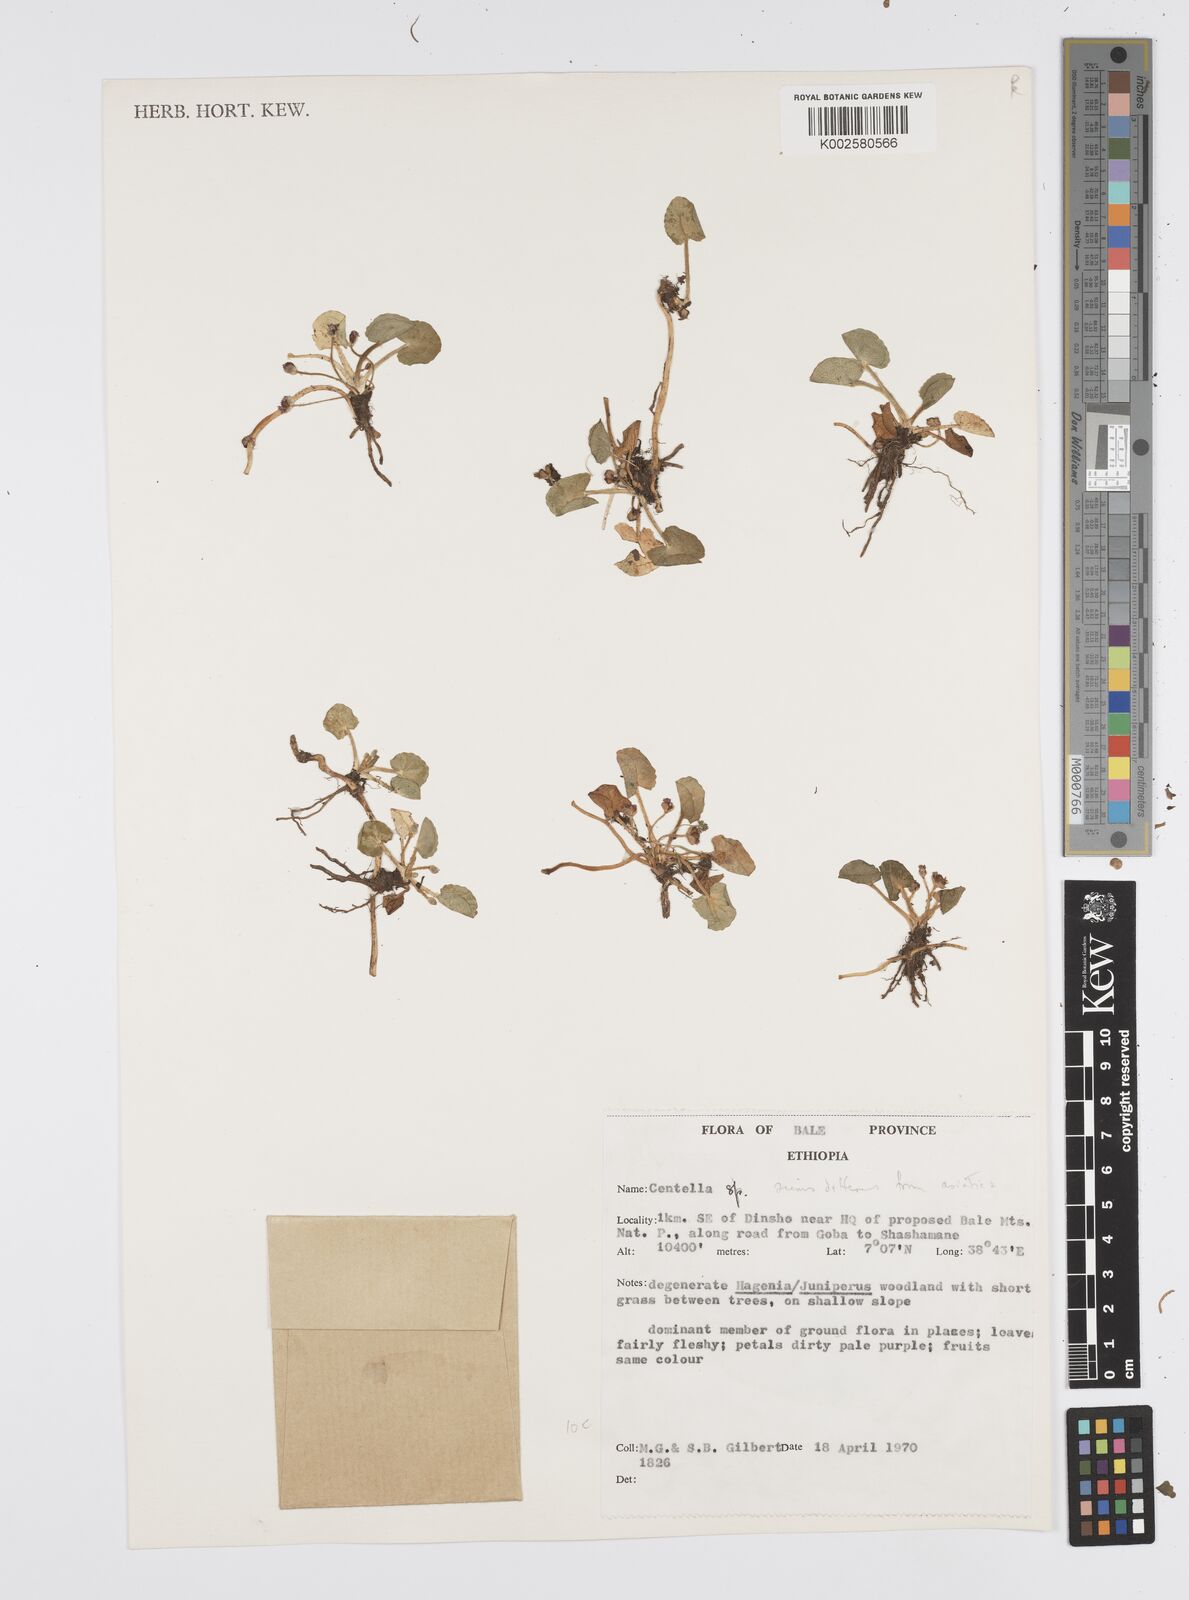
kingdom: Plantae
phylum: Tracheophyta
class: Magnoliopsida
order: Apiales
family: Apiaceae
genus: Centella
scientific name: Centella asiatica
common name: Spadeleaf
